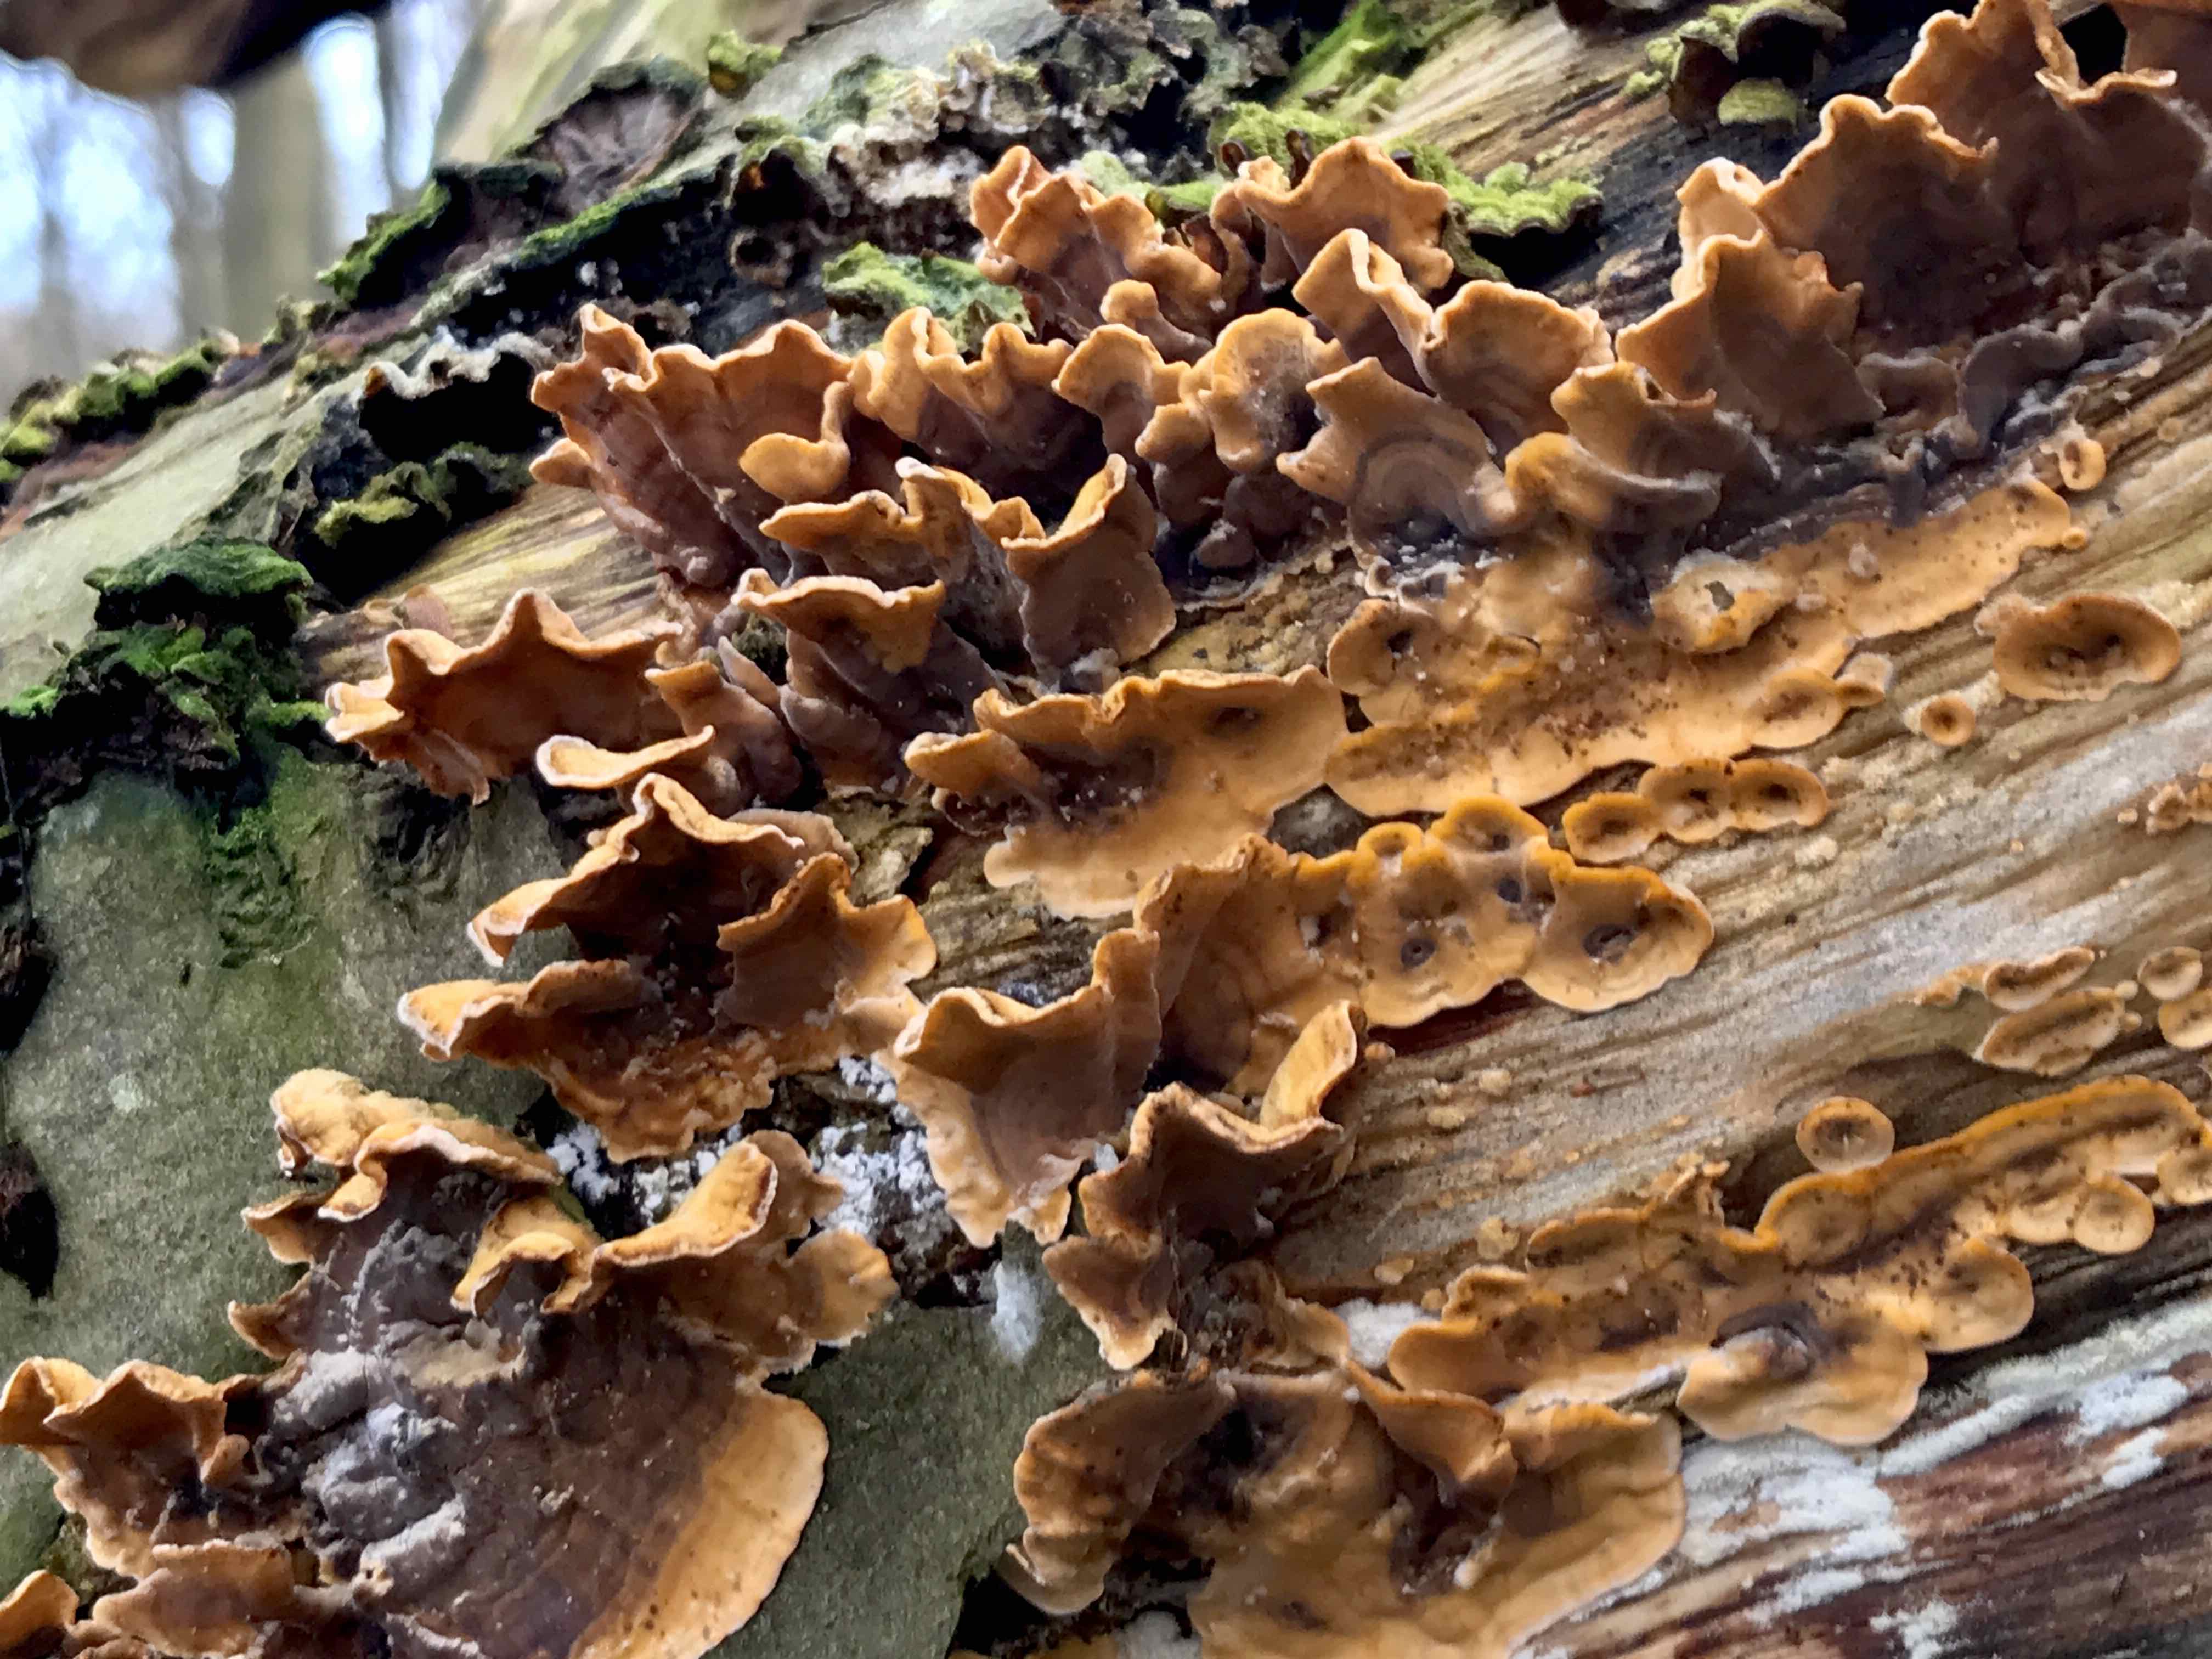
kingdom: Fungi
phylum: Basidiomycota
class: Agaricomycetes
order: Russulales
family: Stereaceae
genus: Stereum
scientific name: Stereum hirsutum
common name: håret lædersvamp
